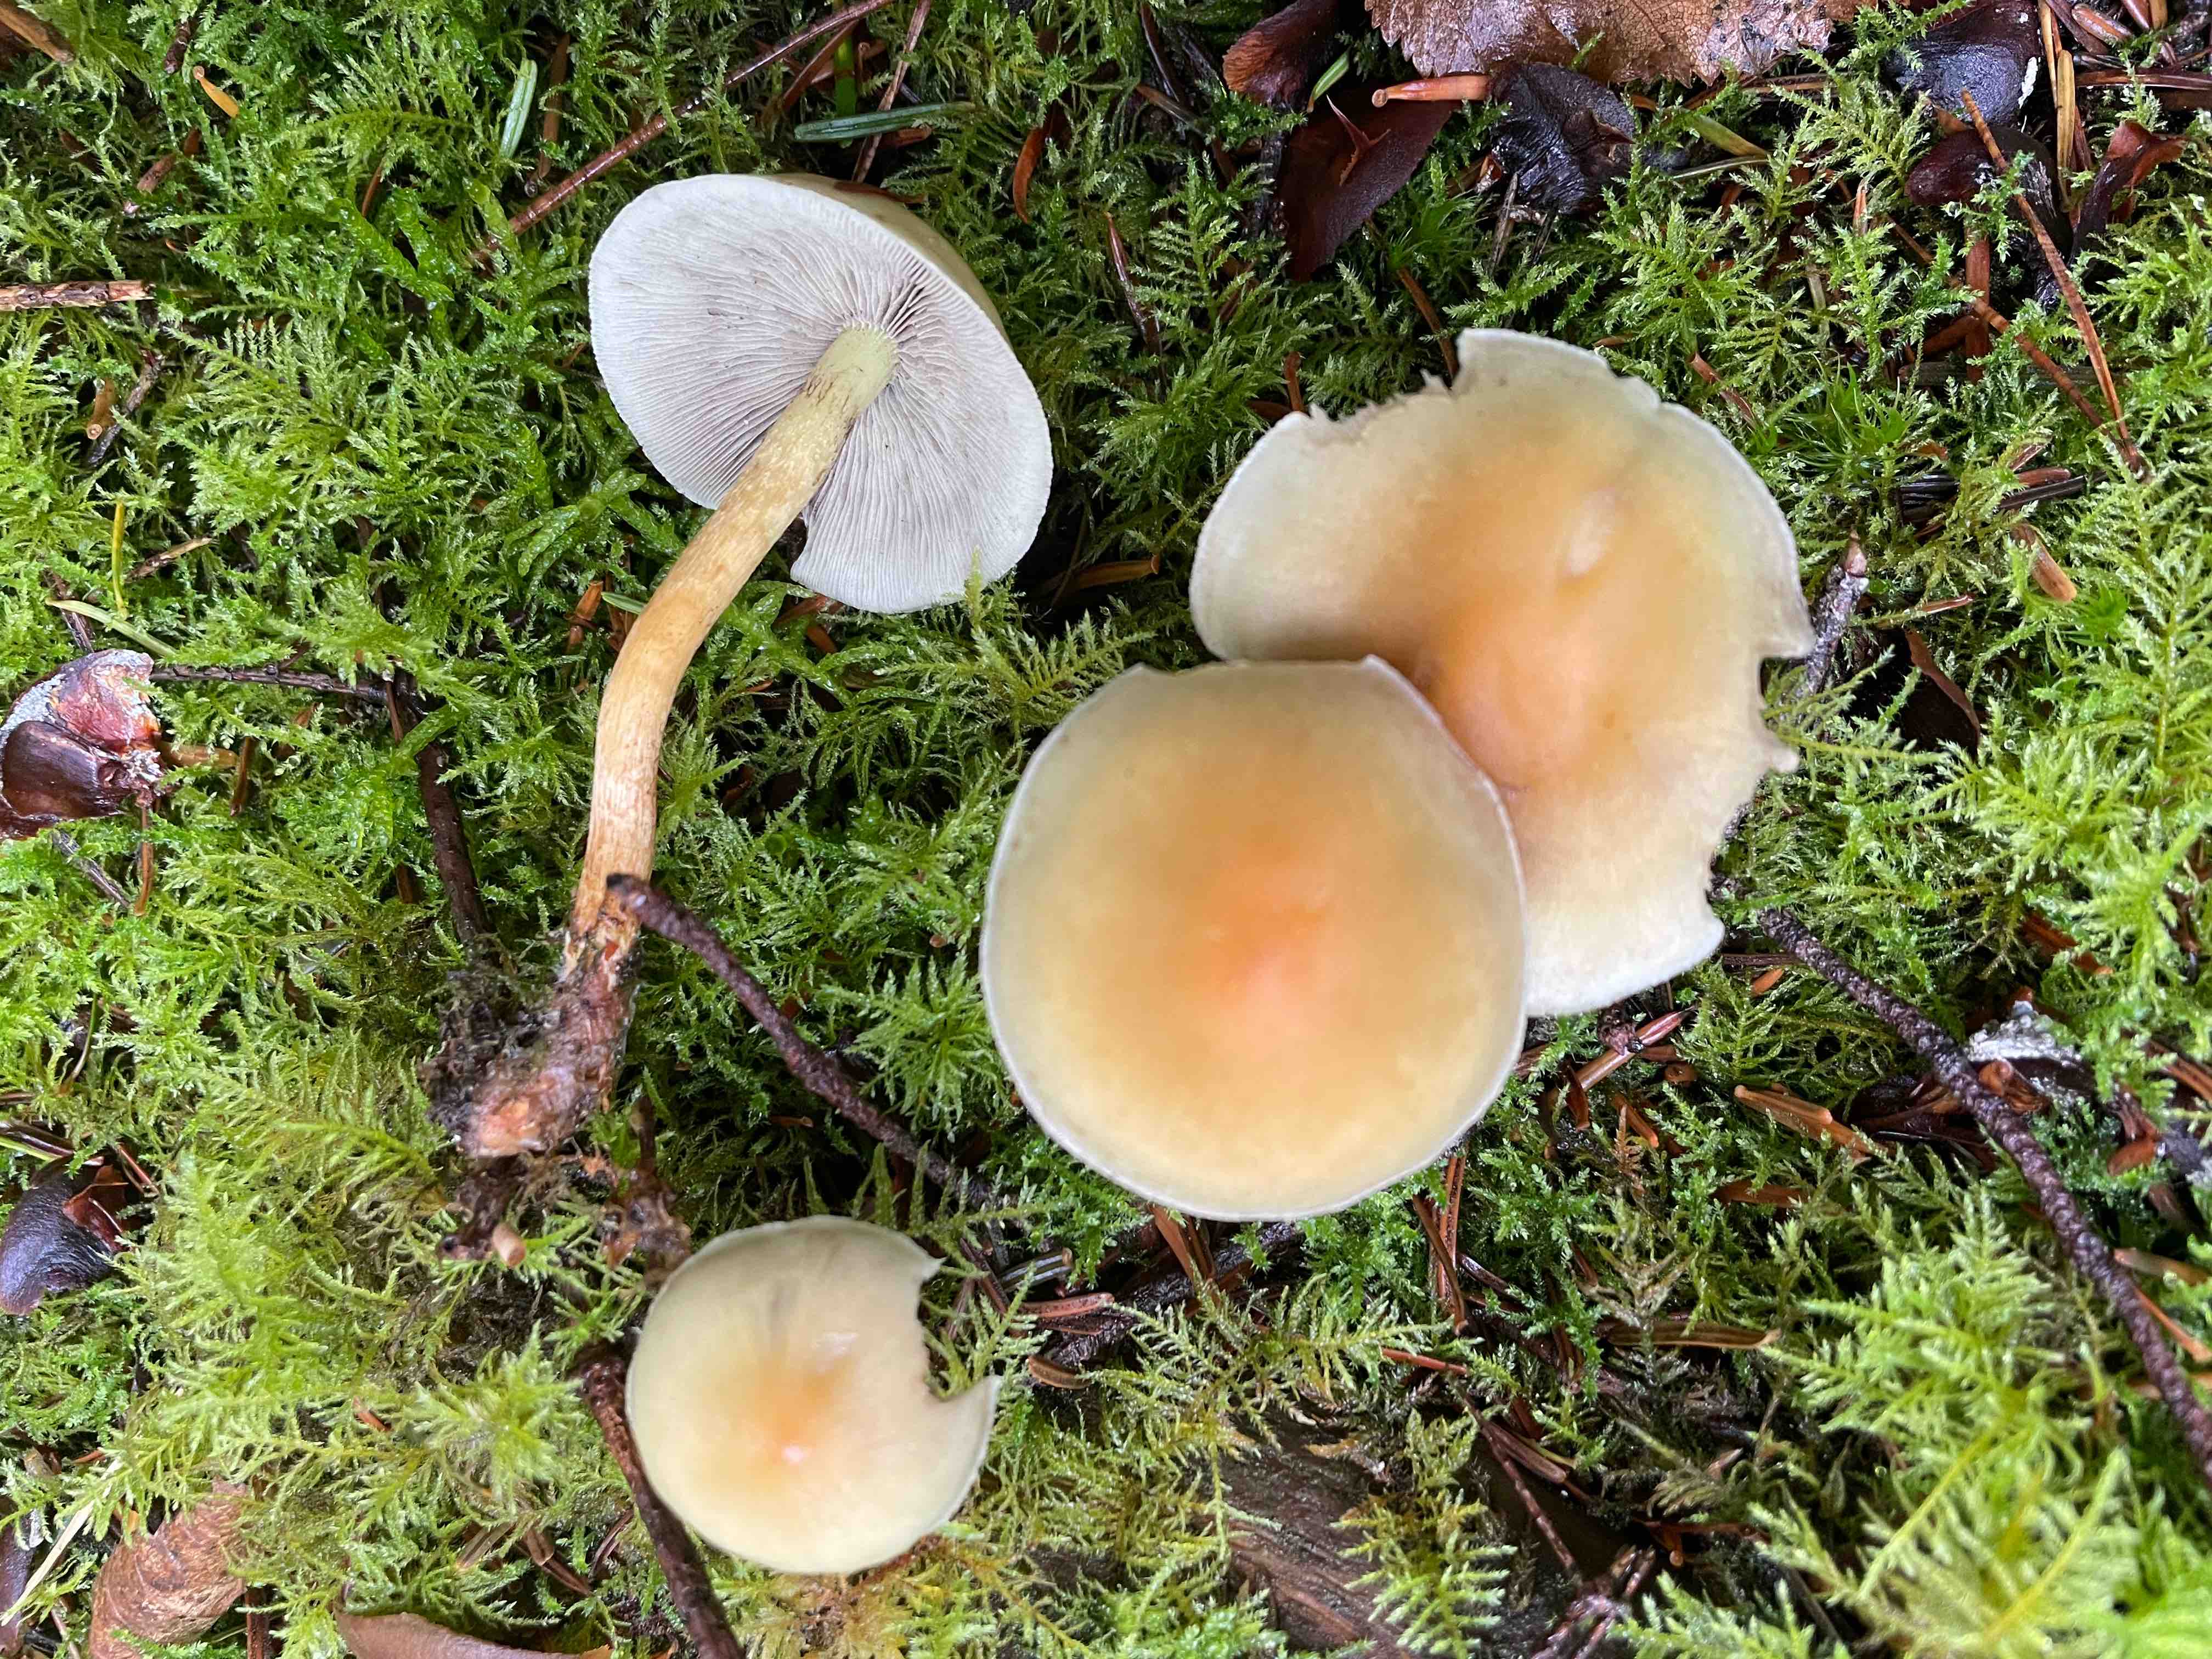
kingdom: Fungi
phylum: Basidiomycota
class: Agaricomycetes
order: Agaricales
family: Strophariaceae
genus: Hypholoma
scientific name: Hypholoma capnoides
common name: gran-svovlhat
